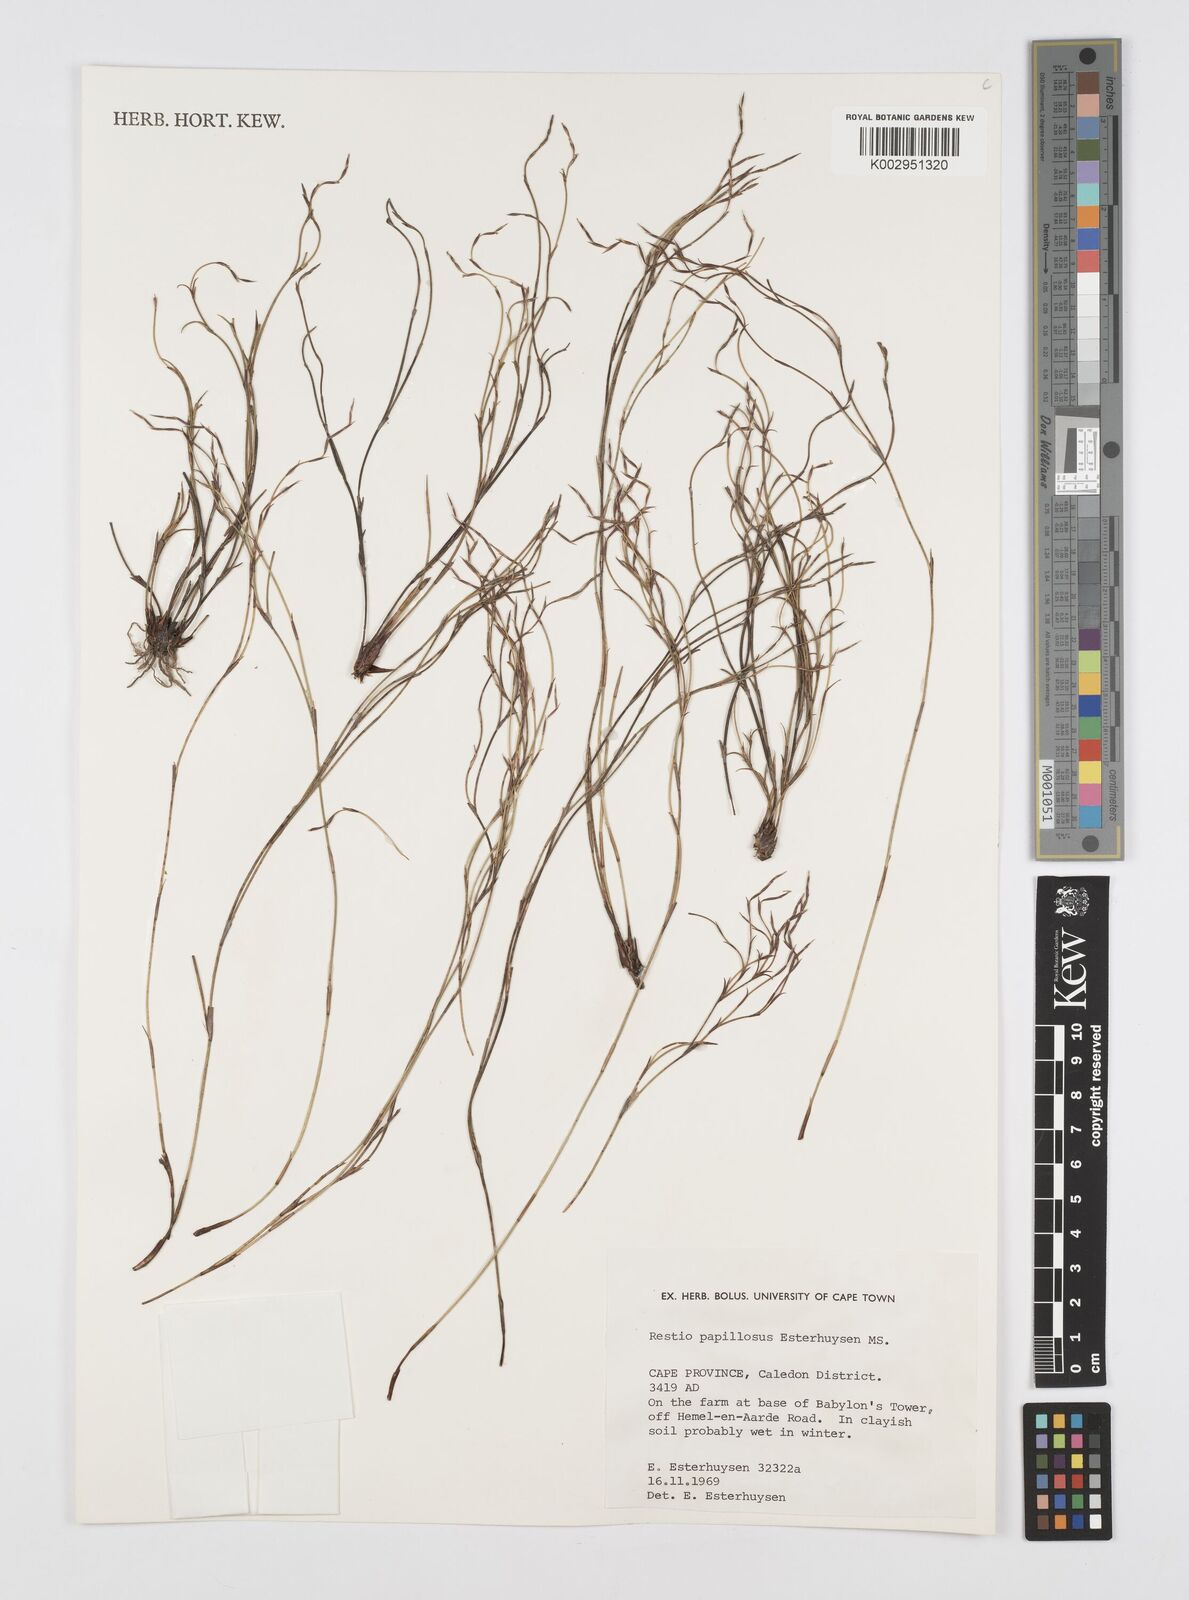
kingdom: Plantae
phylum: Tracheophyta
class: Liliopsida
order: Poales
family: Restionaceae
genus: Restio
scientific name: Restio papillosus
